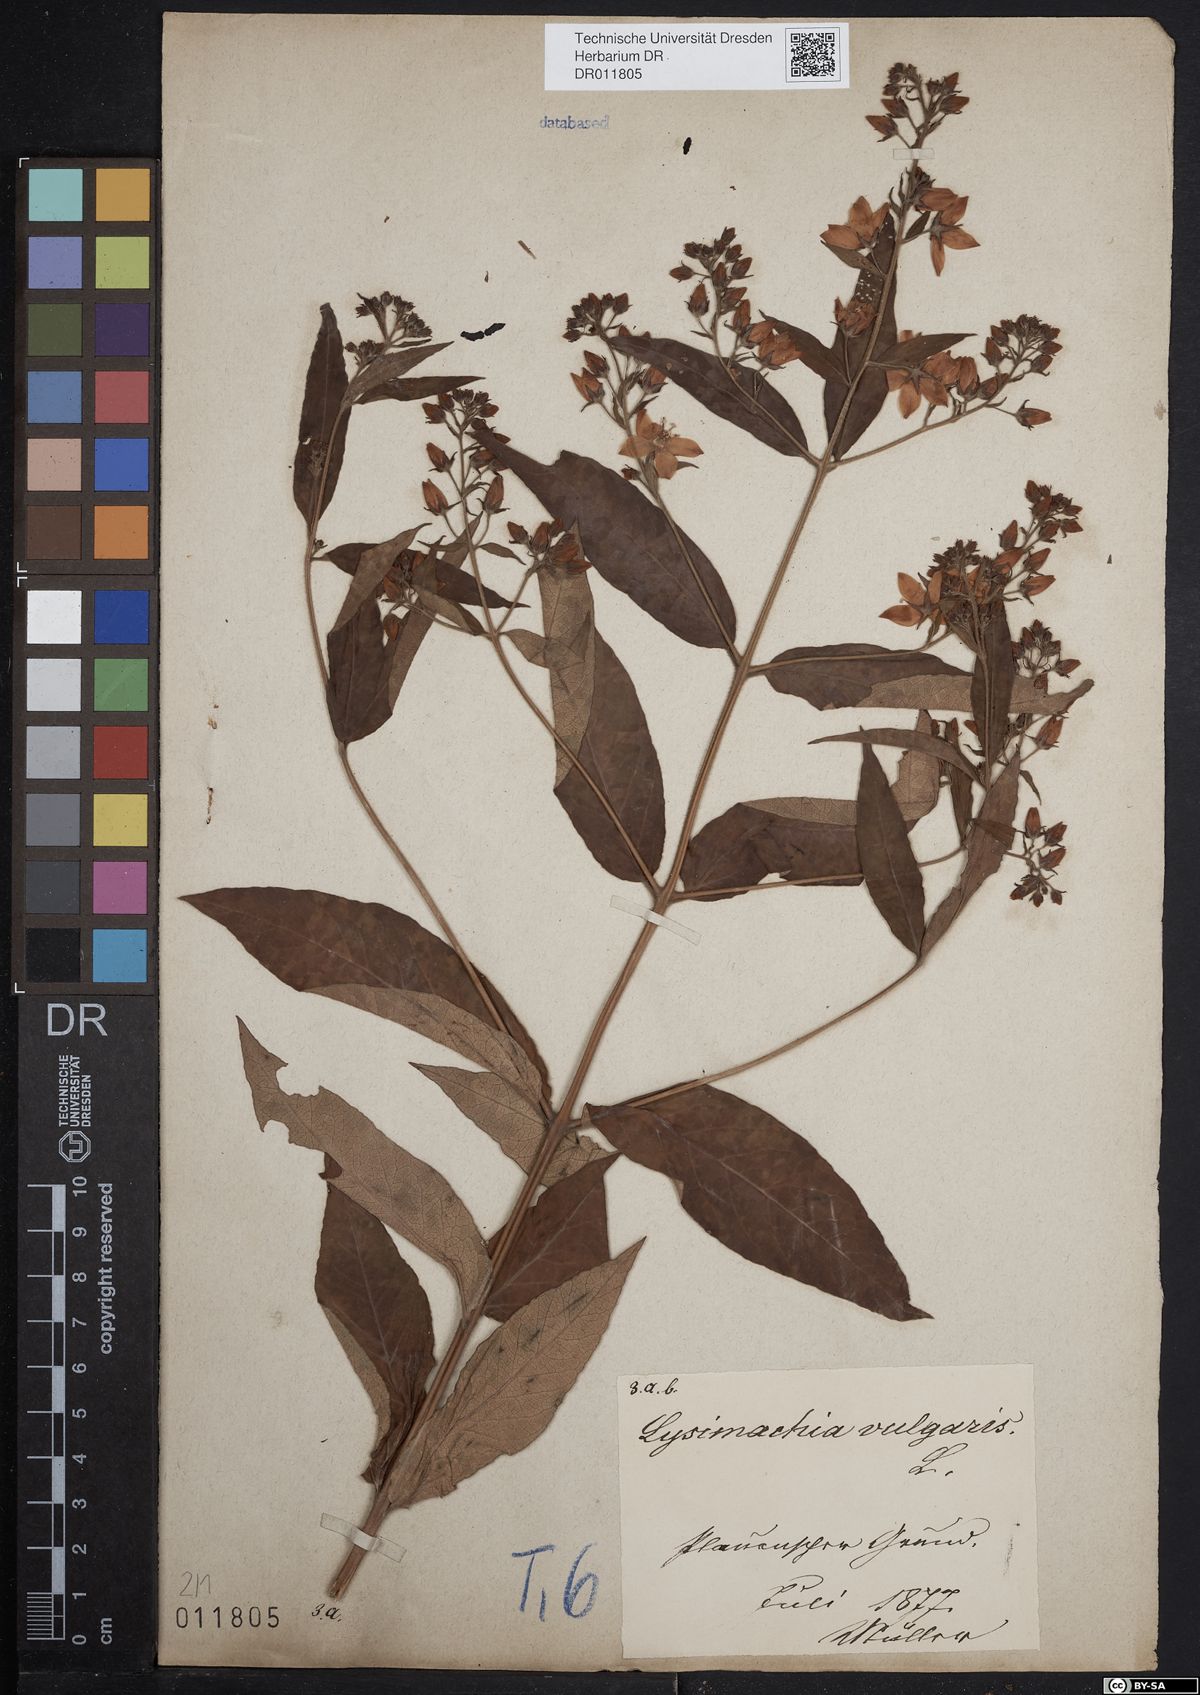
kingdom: Plantae
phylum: Tracheophyta
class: Magnoliopsida
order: Ericales
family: Primulaceae
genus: Lysimachia
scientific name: Lysimachia vulgaris
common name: Yellow loosestrife
